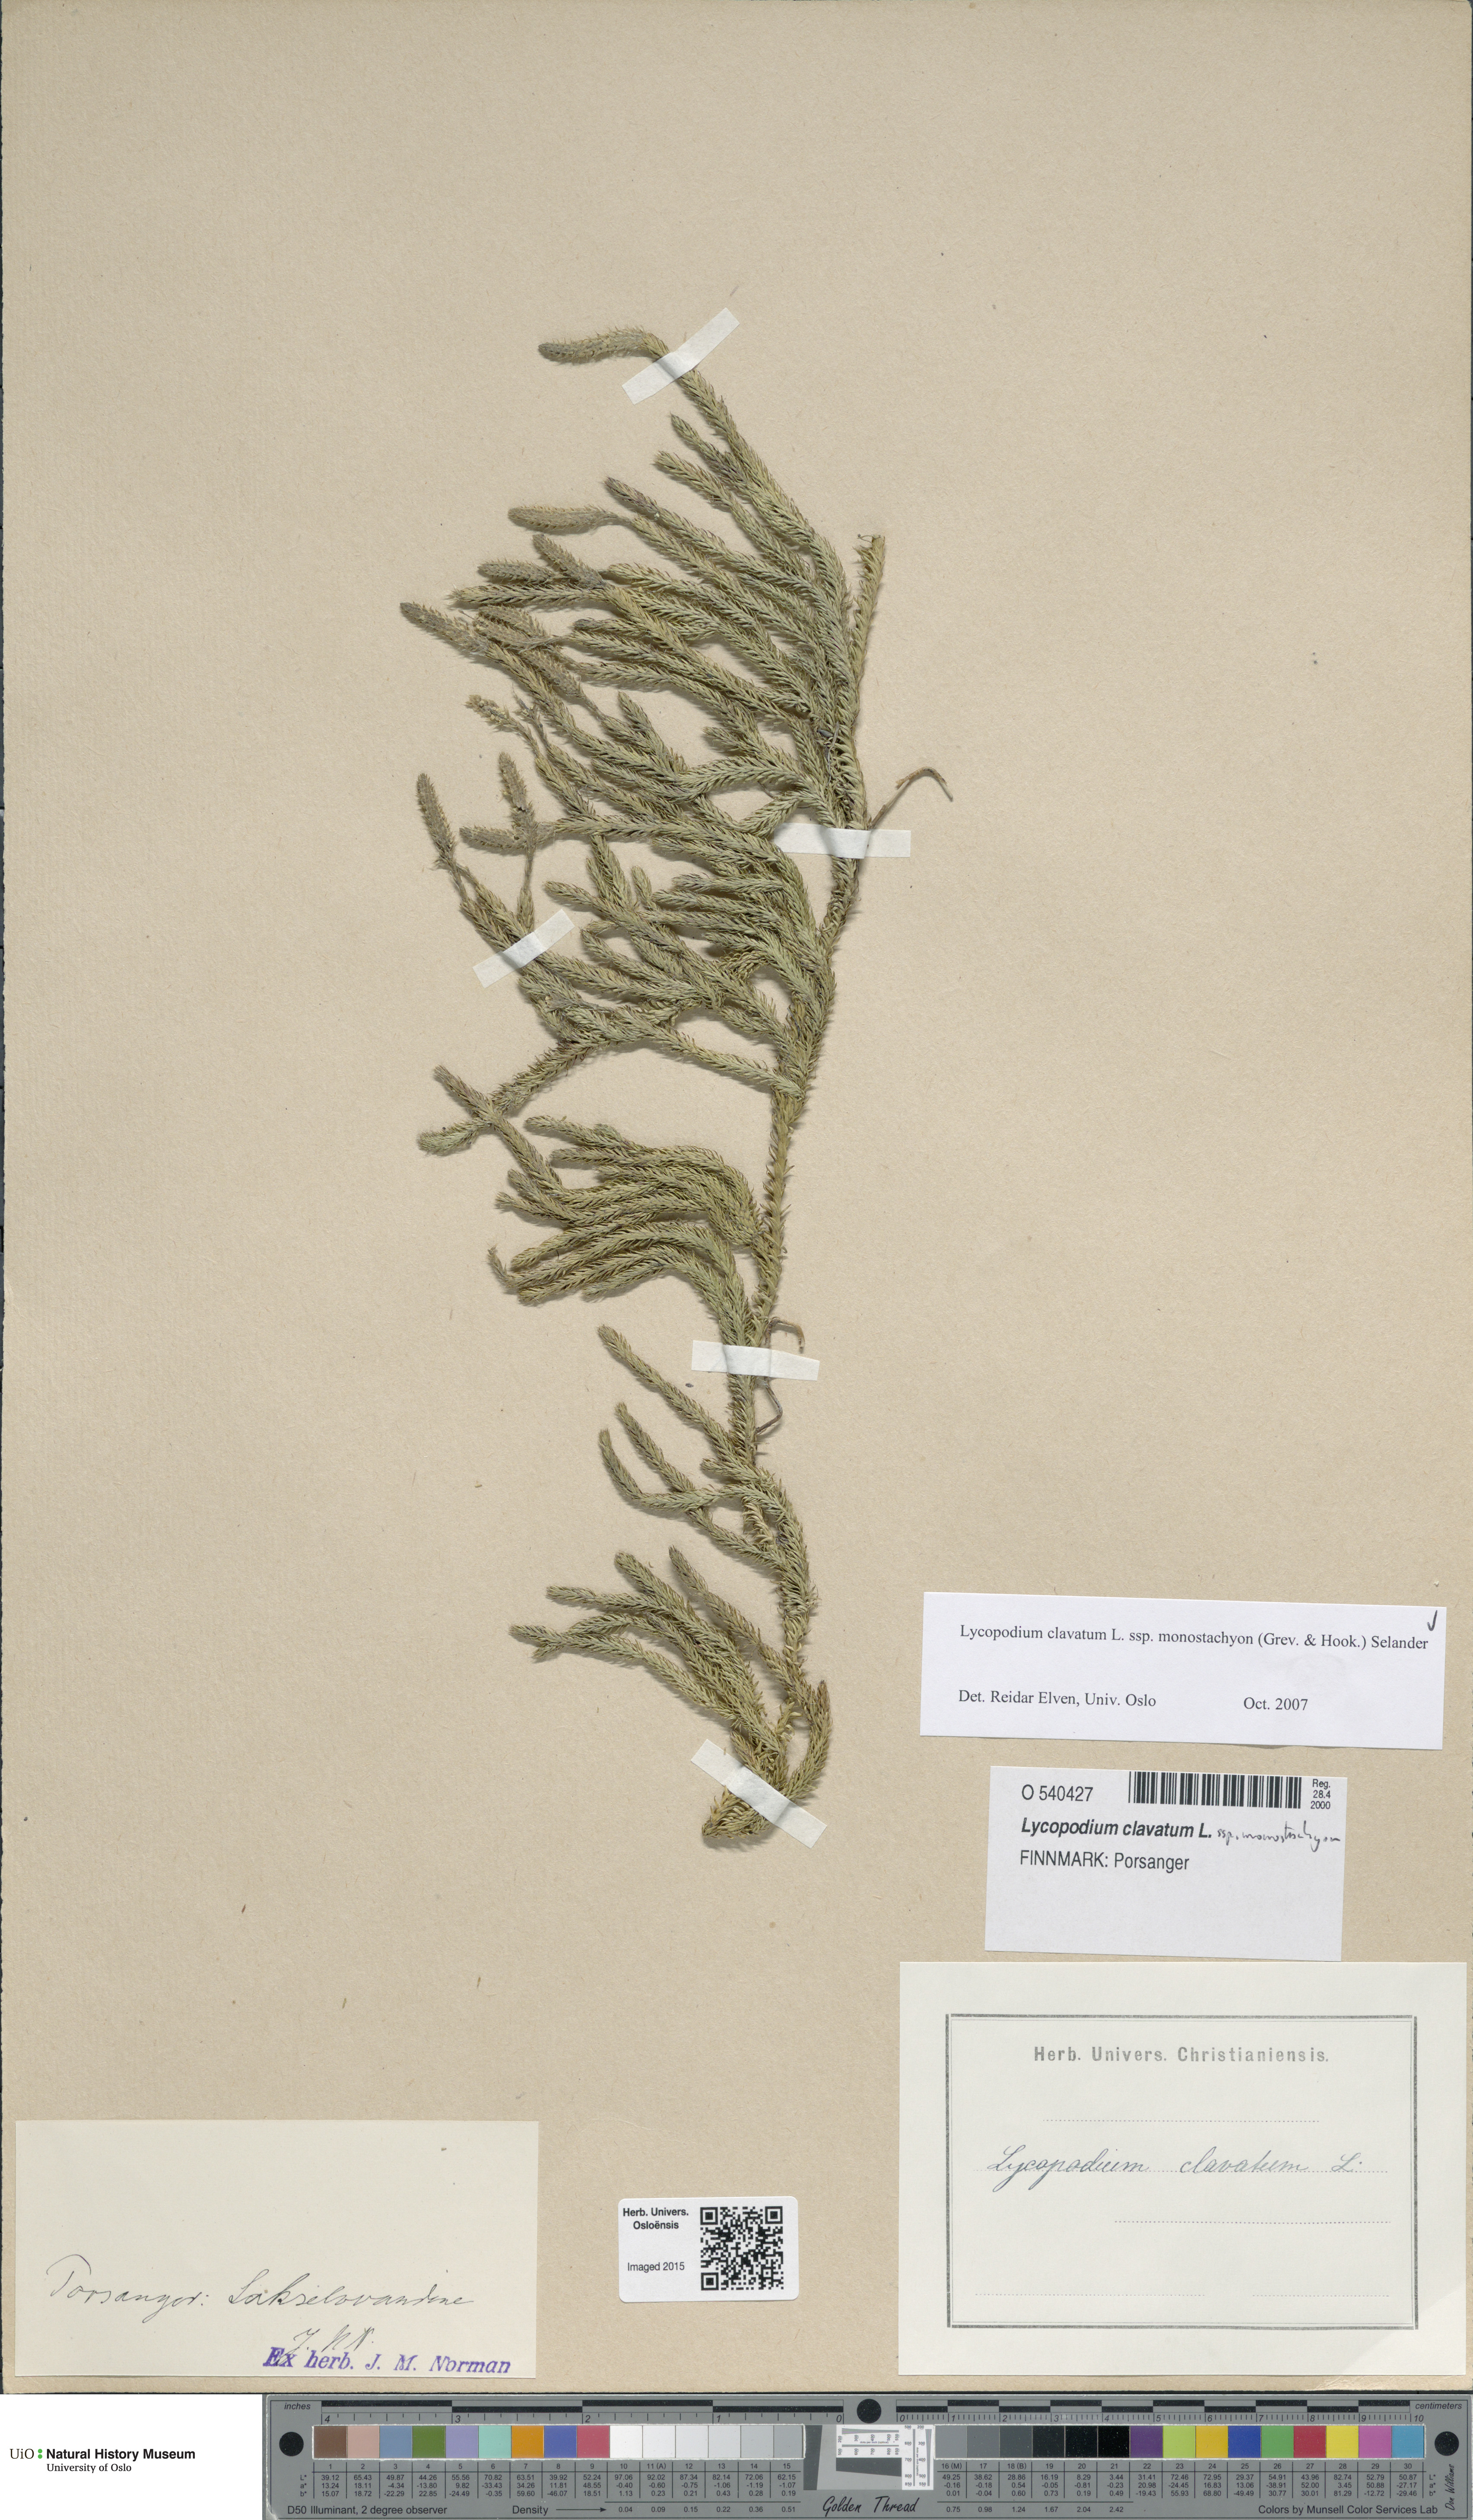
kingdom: Plantae
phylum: Tracheophyta
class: Lycopodiopsida
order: Lycopodiales
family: Lycopodiaceae
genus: Lycopodium
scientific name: Lycopodium lagopus
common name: One-cone clubmoss
